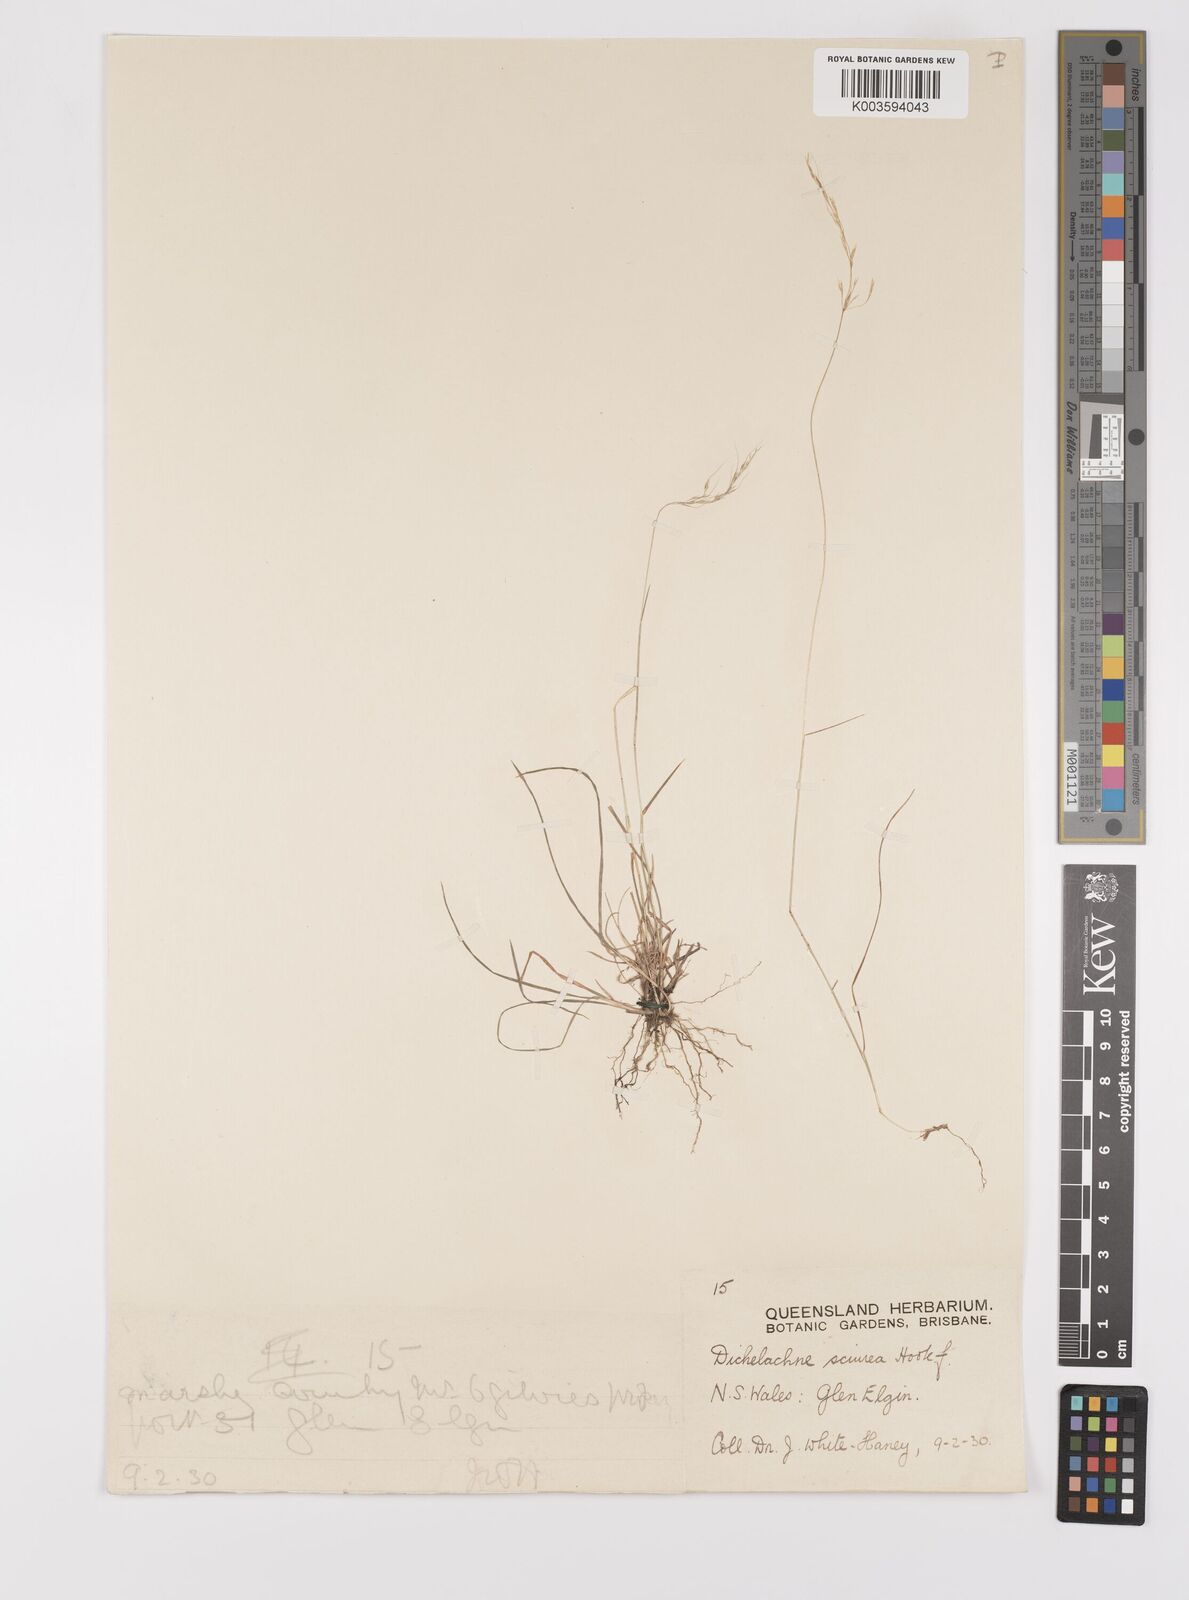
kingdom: Plantae
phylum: Tracheophyta
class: Liliopsida
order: Poales
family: Poaceae
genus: Dichelachne
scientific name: Dichelachne rara
